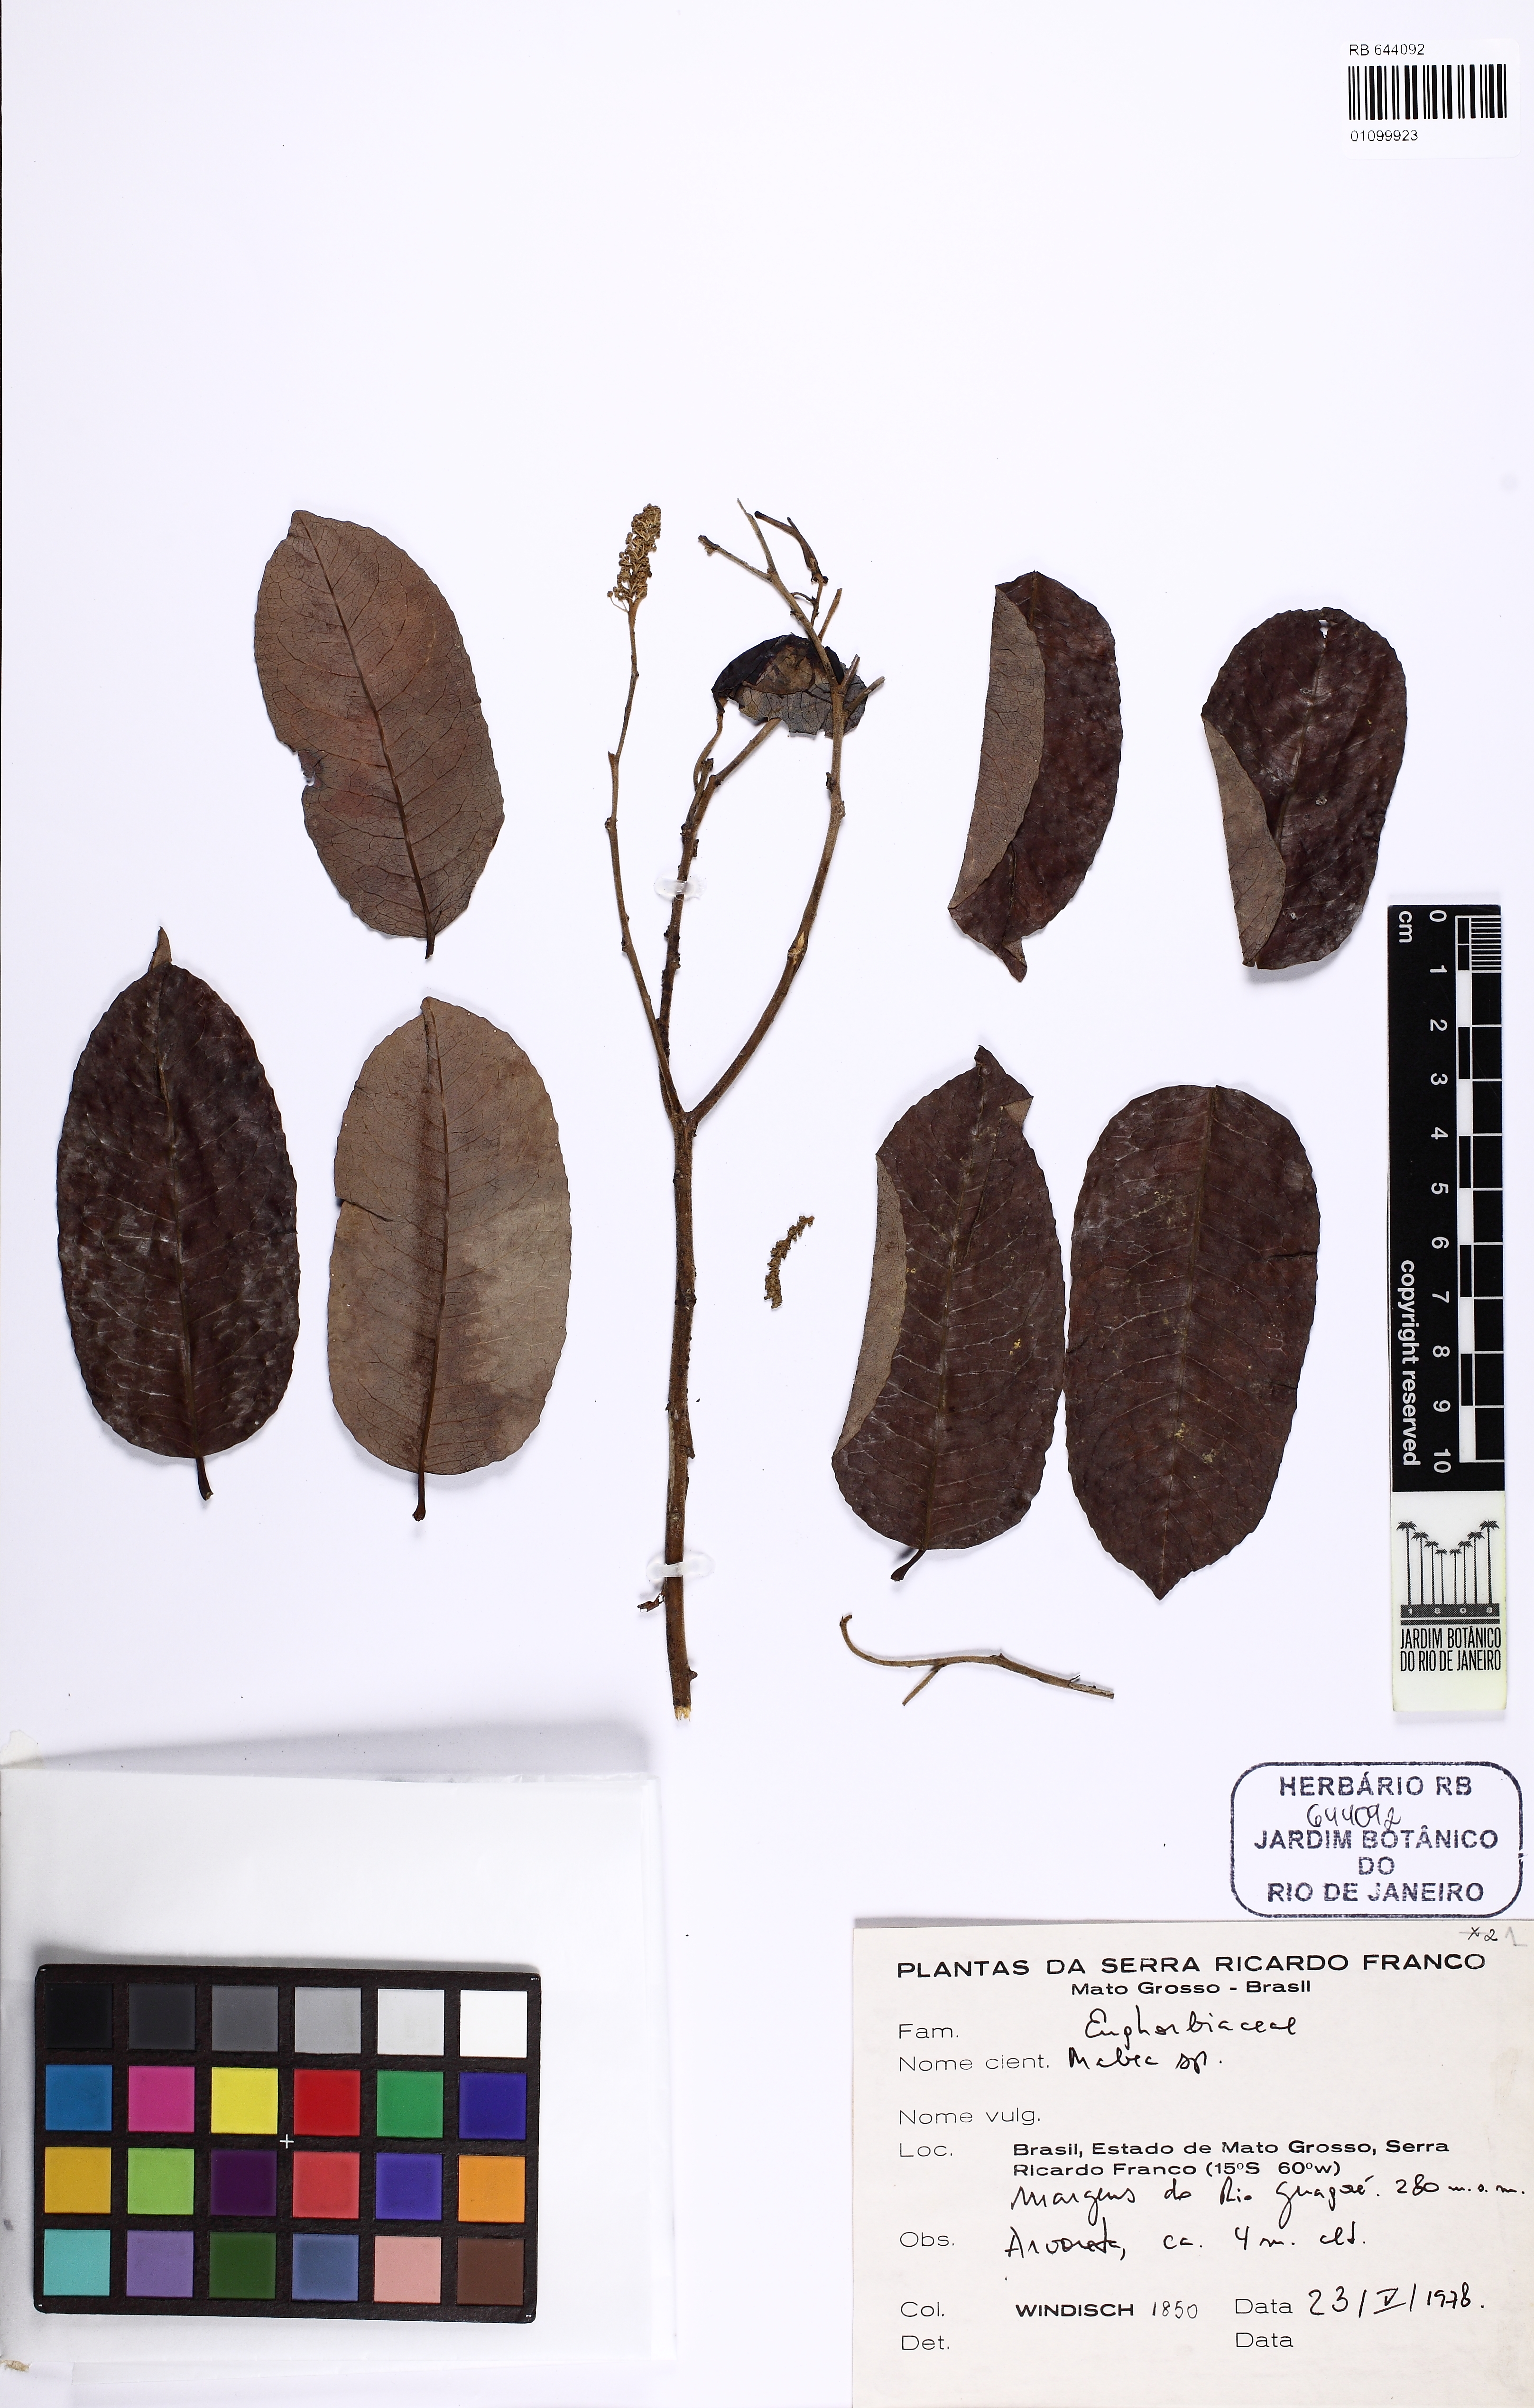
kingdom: Plantae
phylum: Tracheophyta
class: Magnoliopsida
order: Malpighiales
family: Euphorbiaceae
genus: Mabea
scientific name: Mabea
